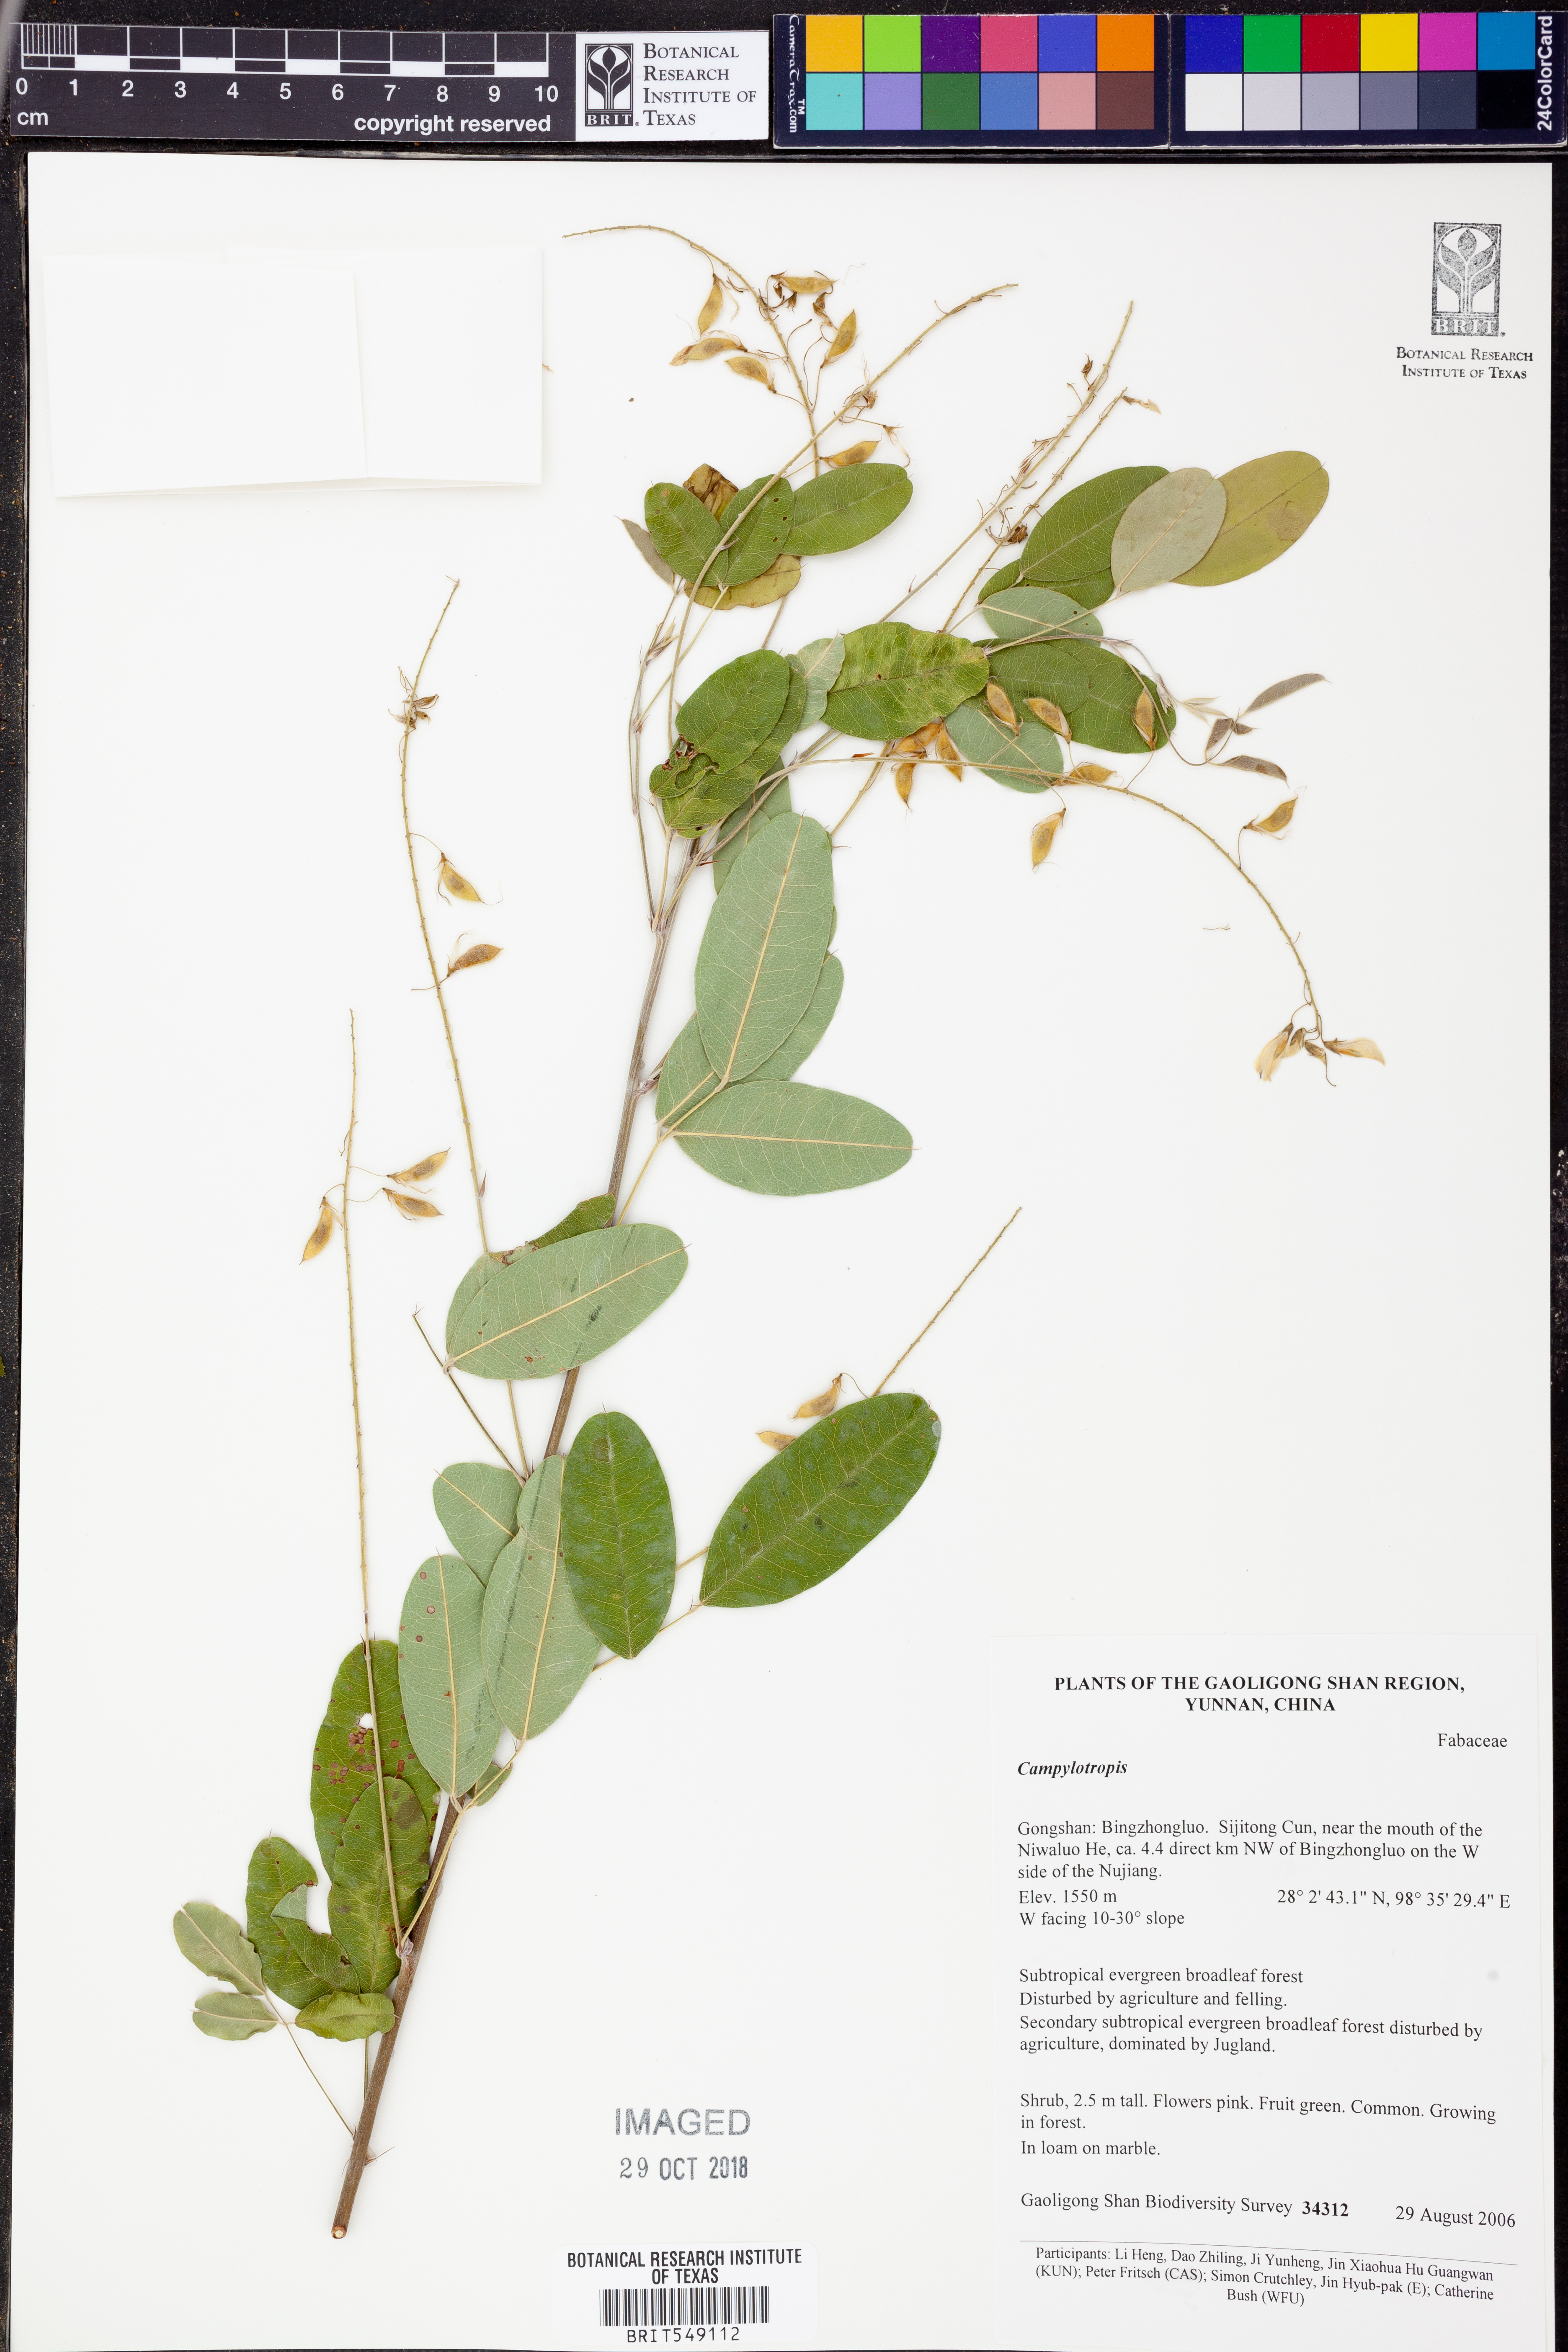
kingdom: Plantae
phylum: Tracheophyta
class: Magnoliopsida
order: Fabales
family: Fabaceae
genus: Campylotropis
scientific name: Campylotropis
